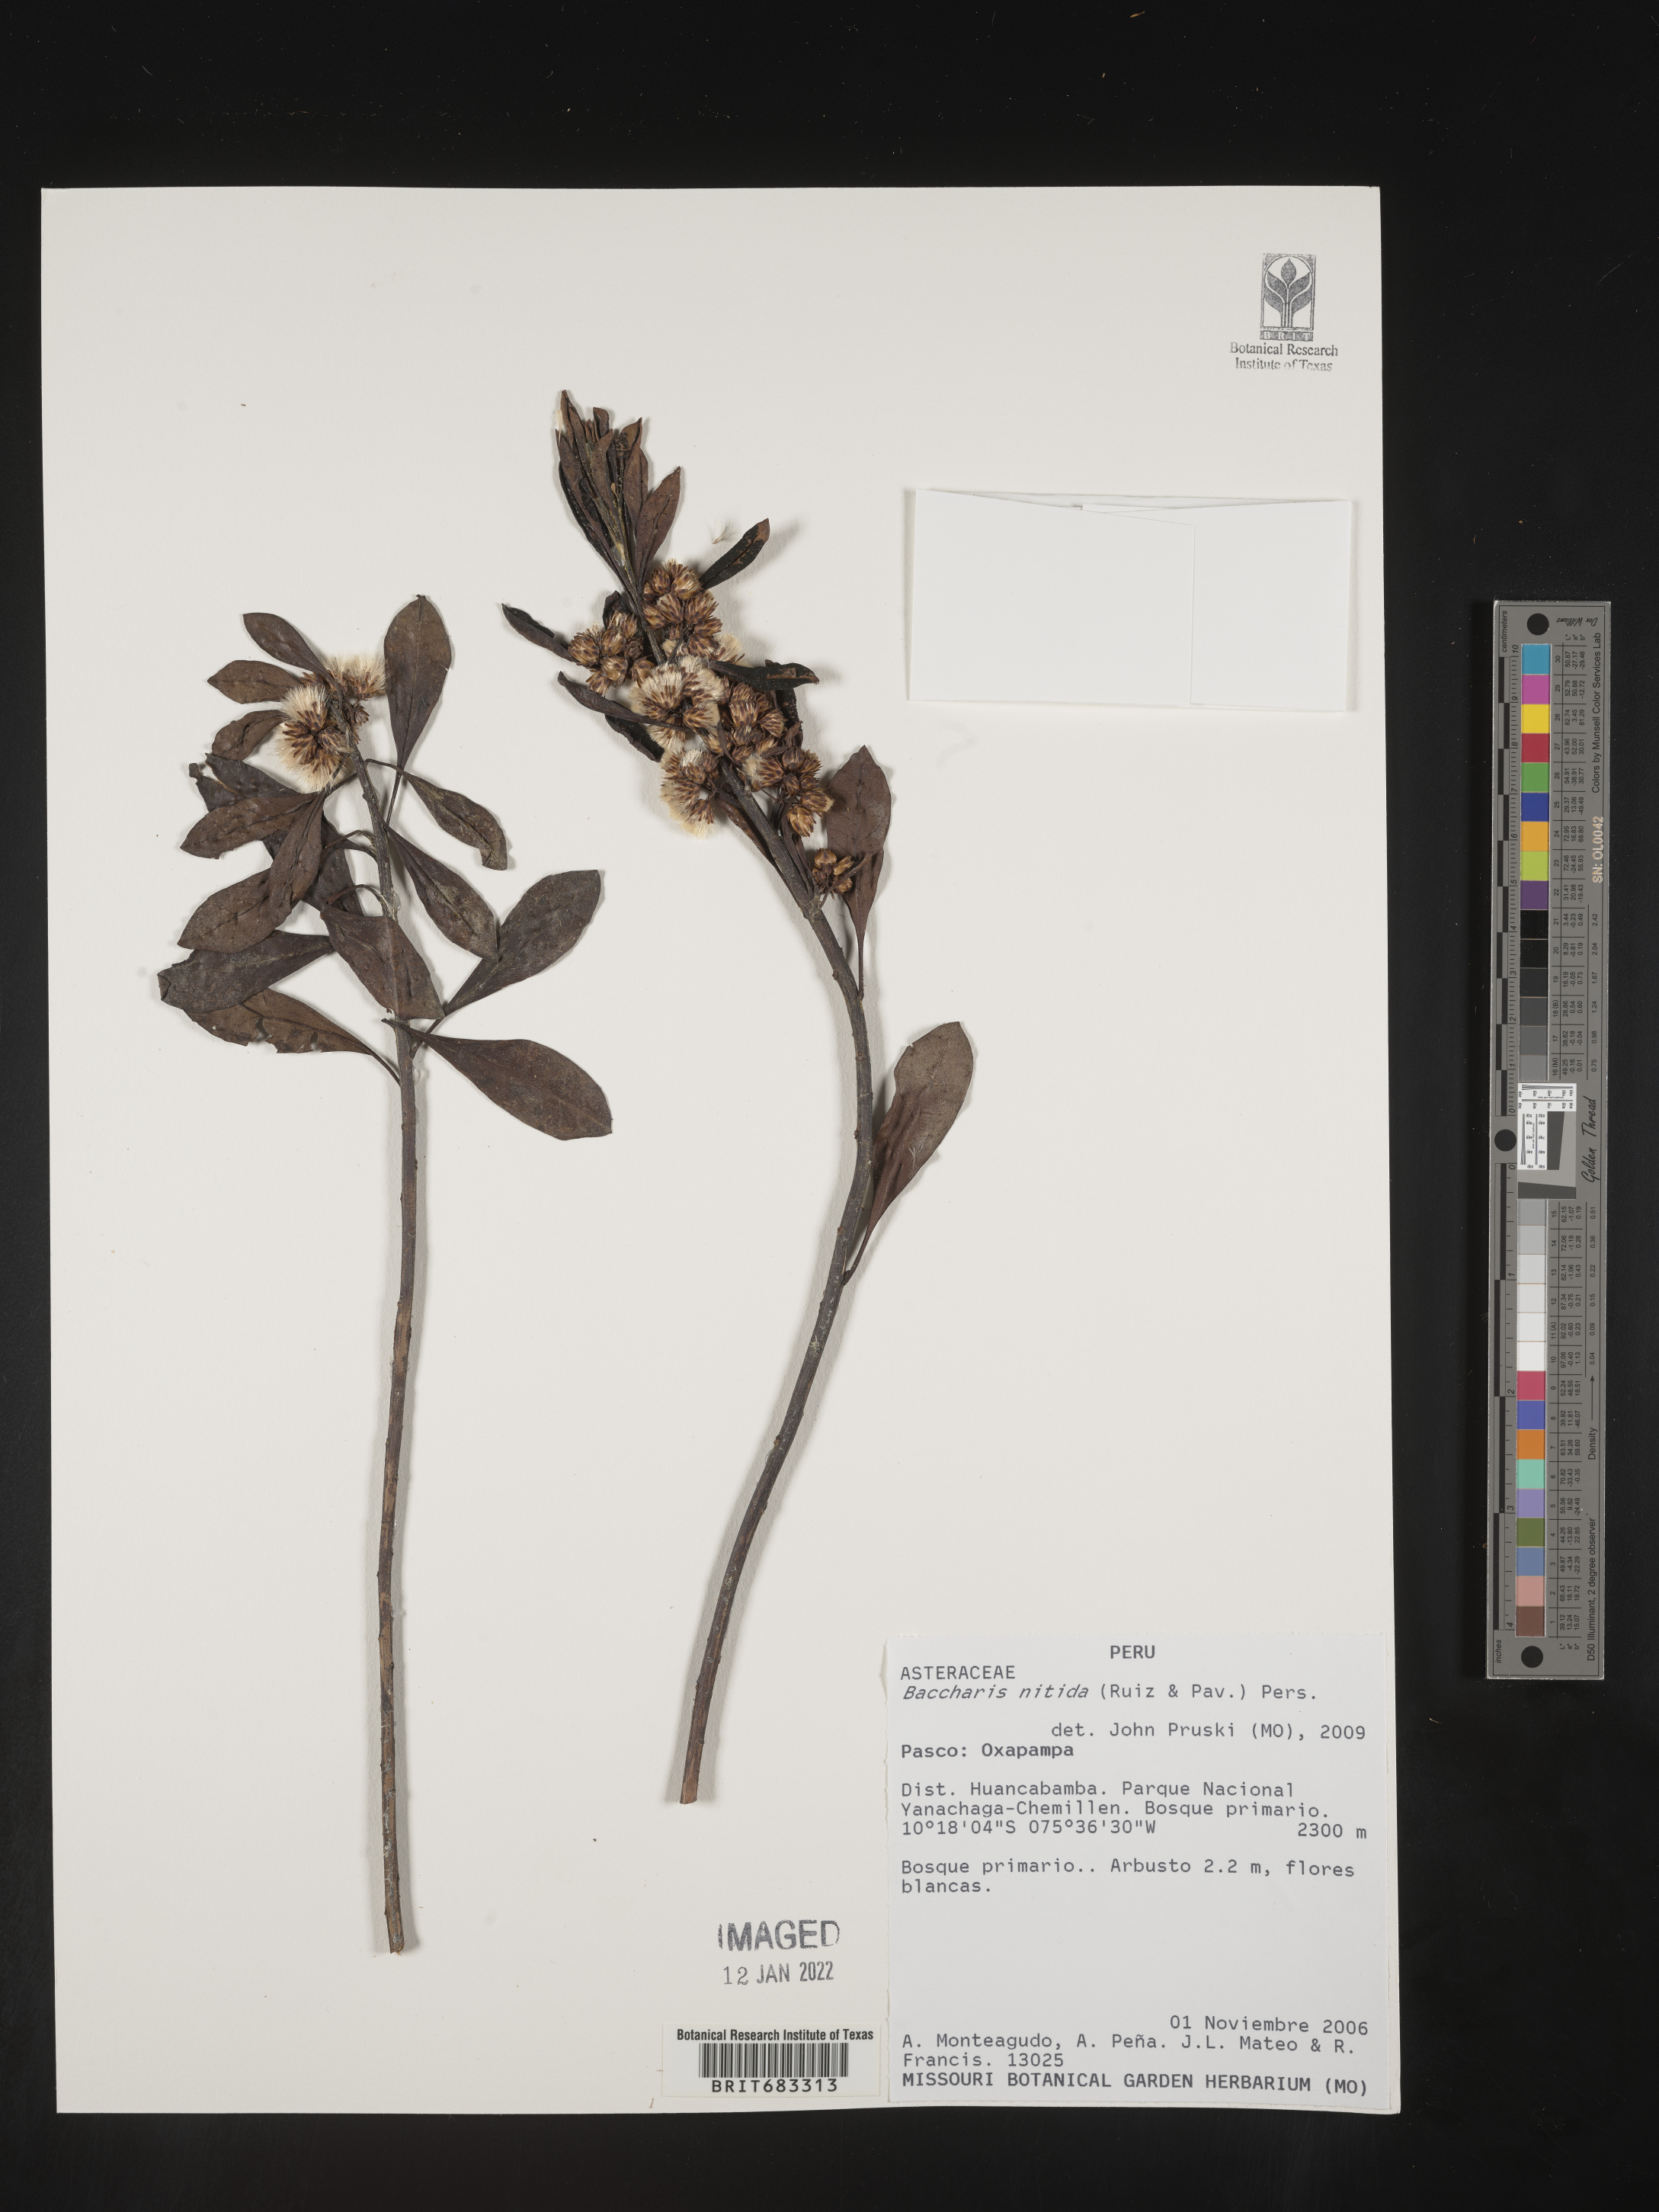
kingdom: Plantae
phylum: Tracheophyta
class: Magnoliopsida
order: Asterales
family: Asteraceae
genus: Baccharis
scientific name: Baccharis
